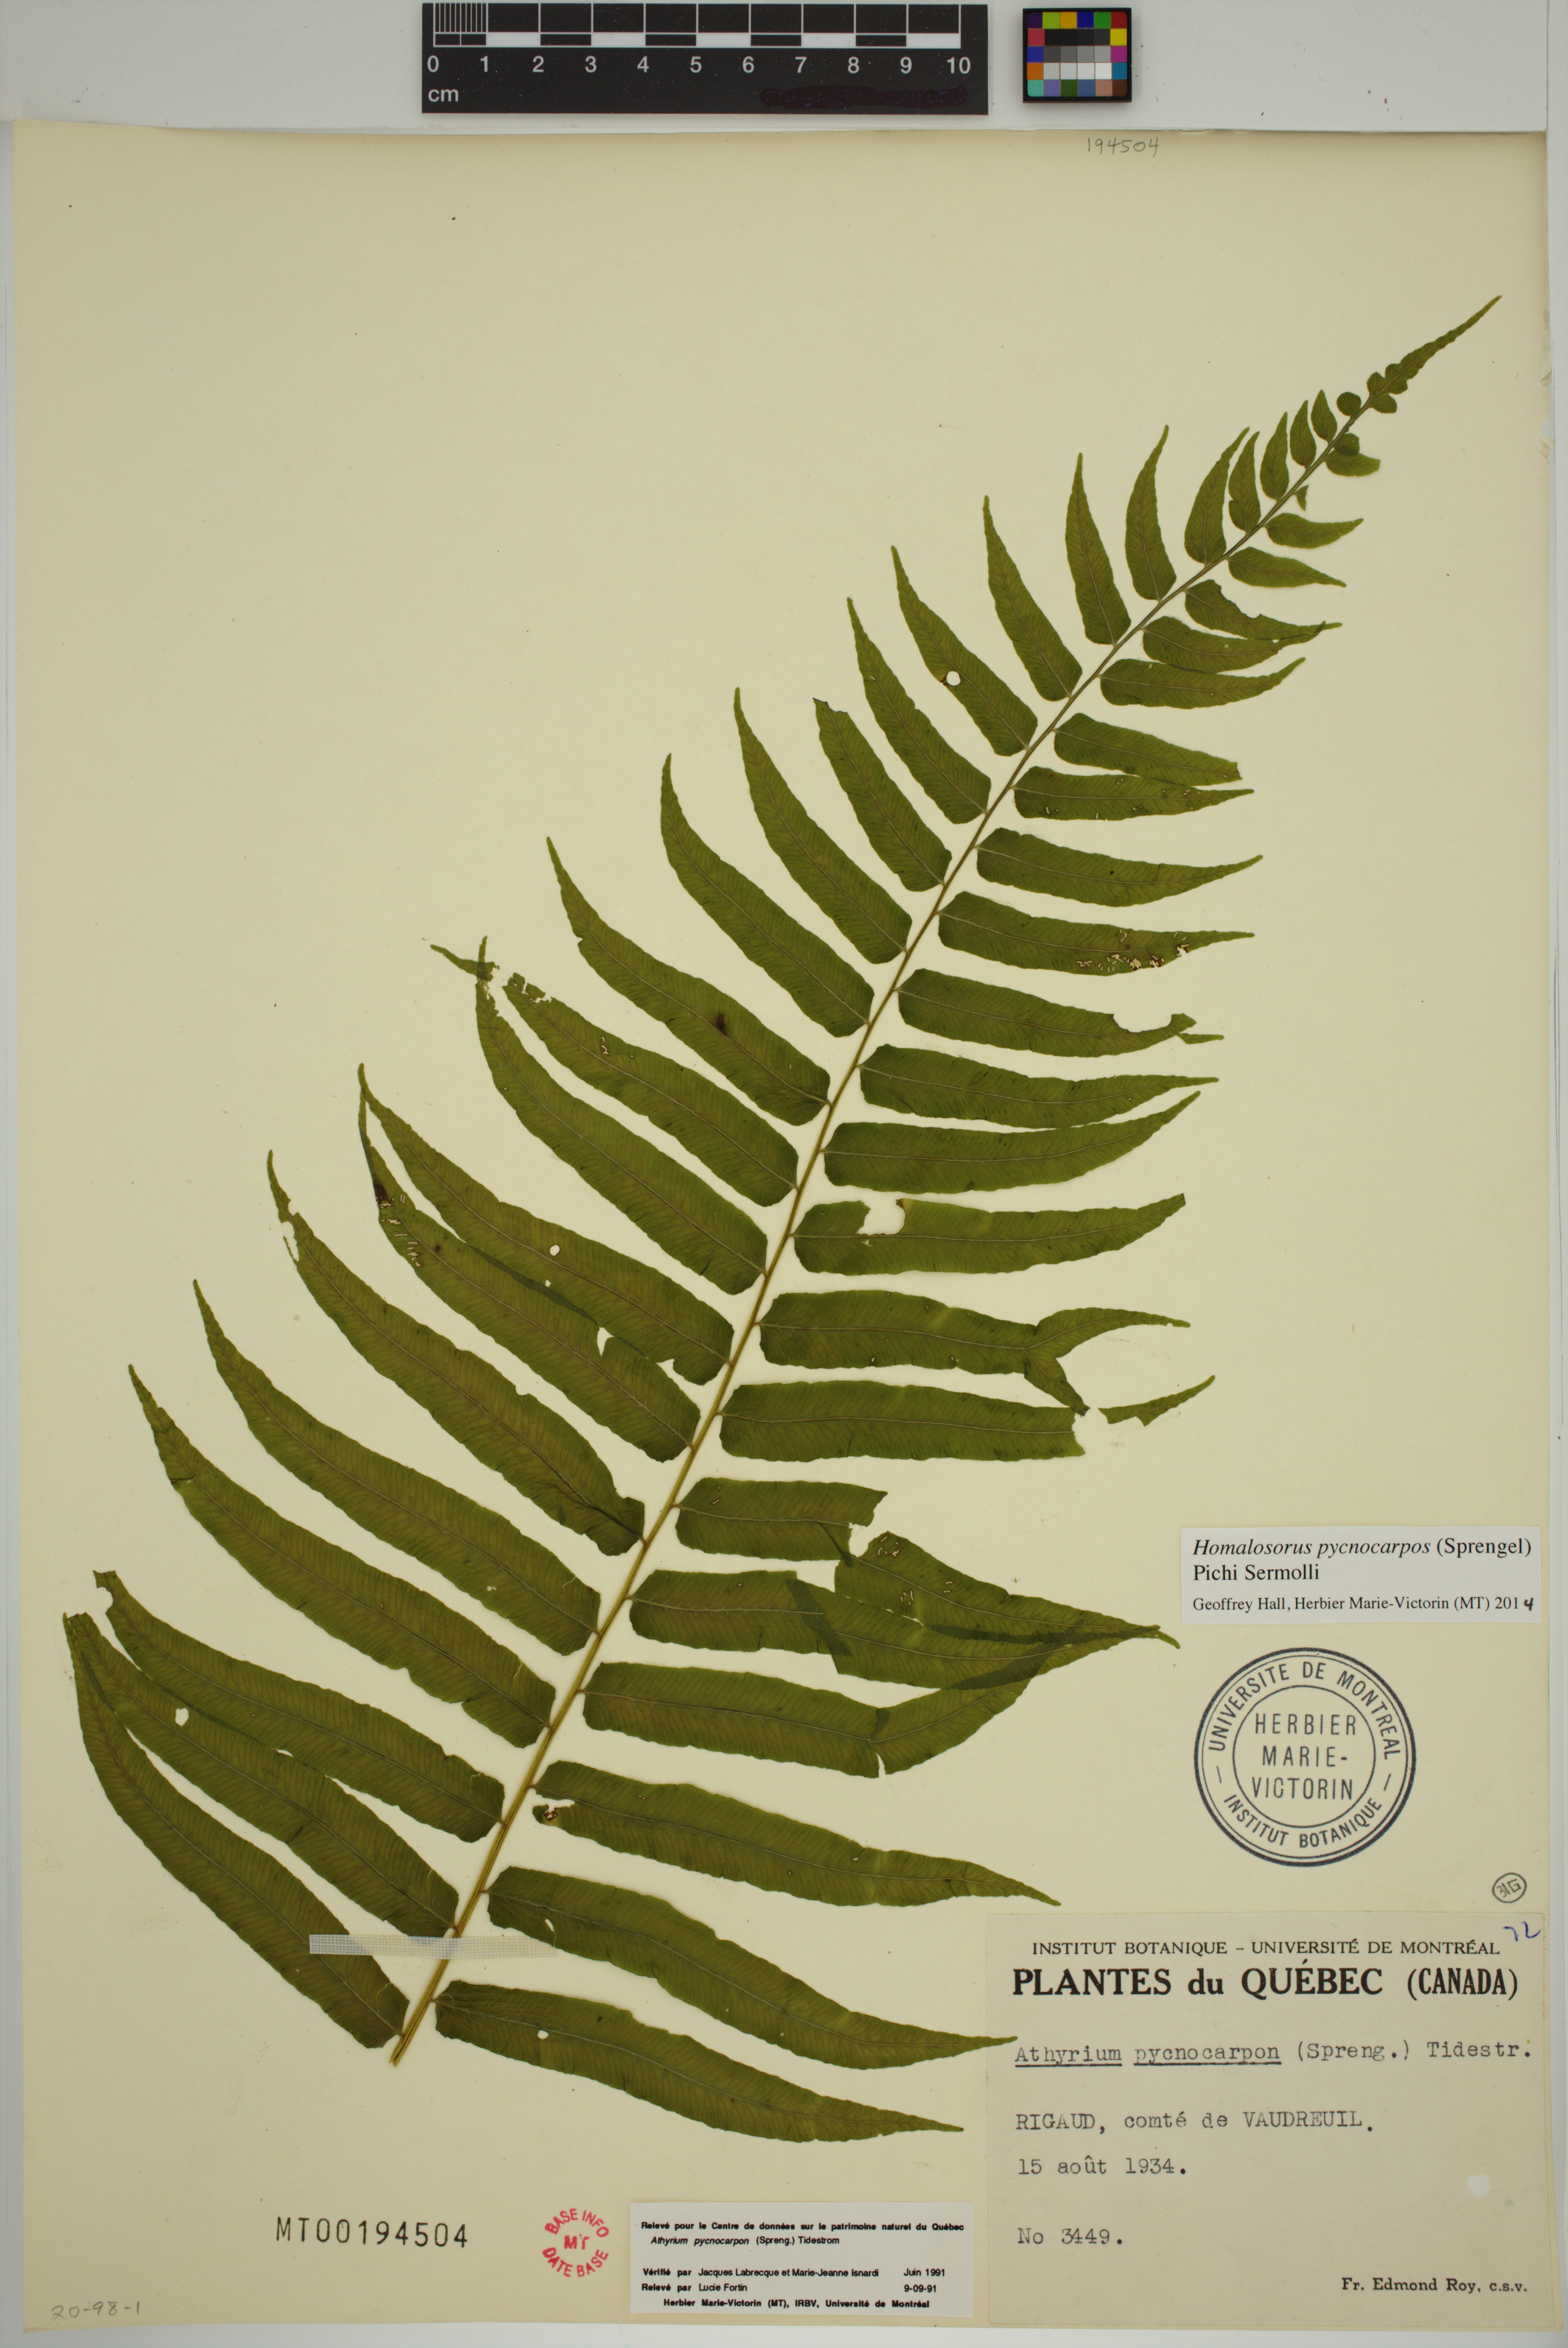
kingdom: Plantae
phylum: Tracheophyta
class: Polypodiopsida
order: Polypodiales
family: Diplaziopsidaceae
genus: Homalosorus
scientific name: Homalosorus pycnocarpos
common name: Glade fern
